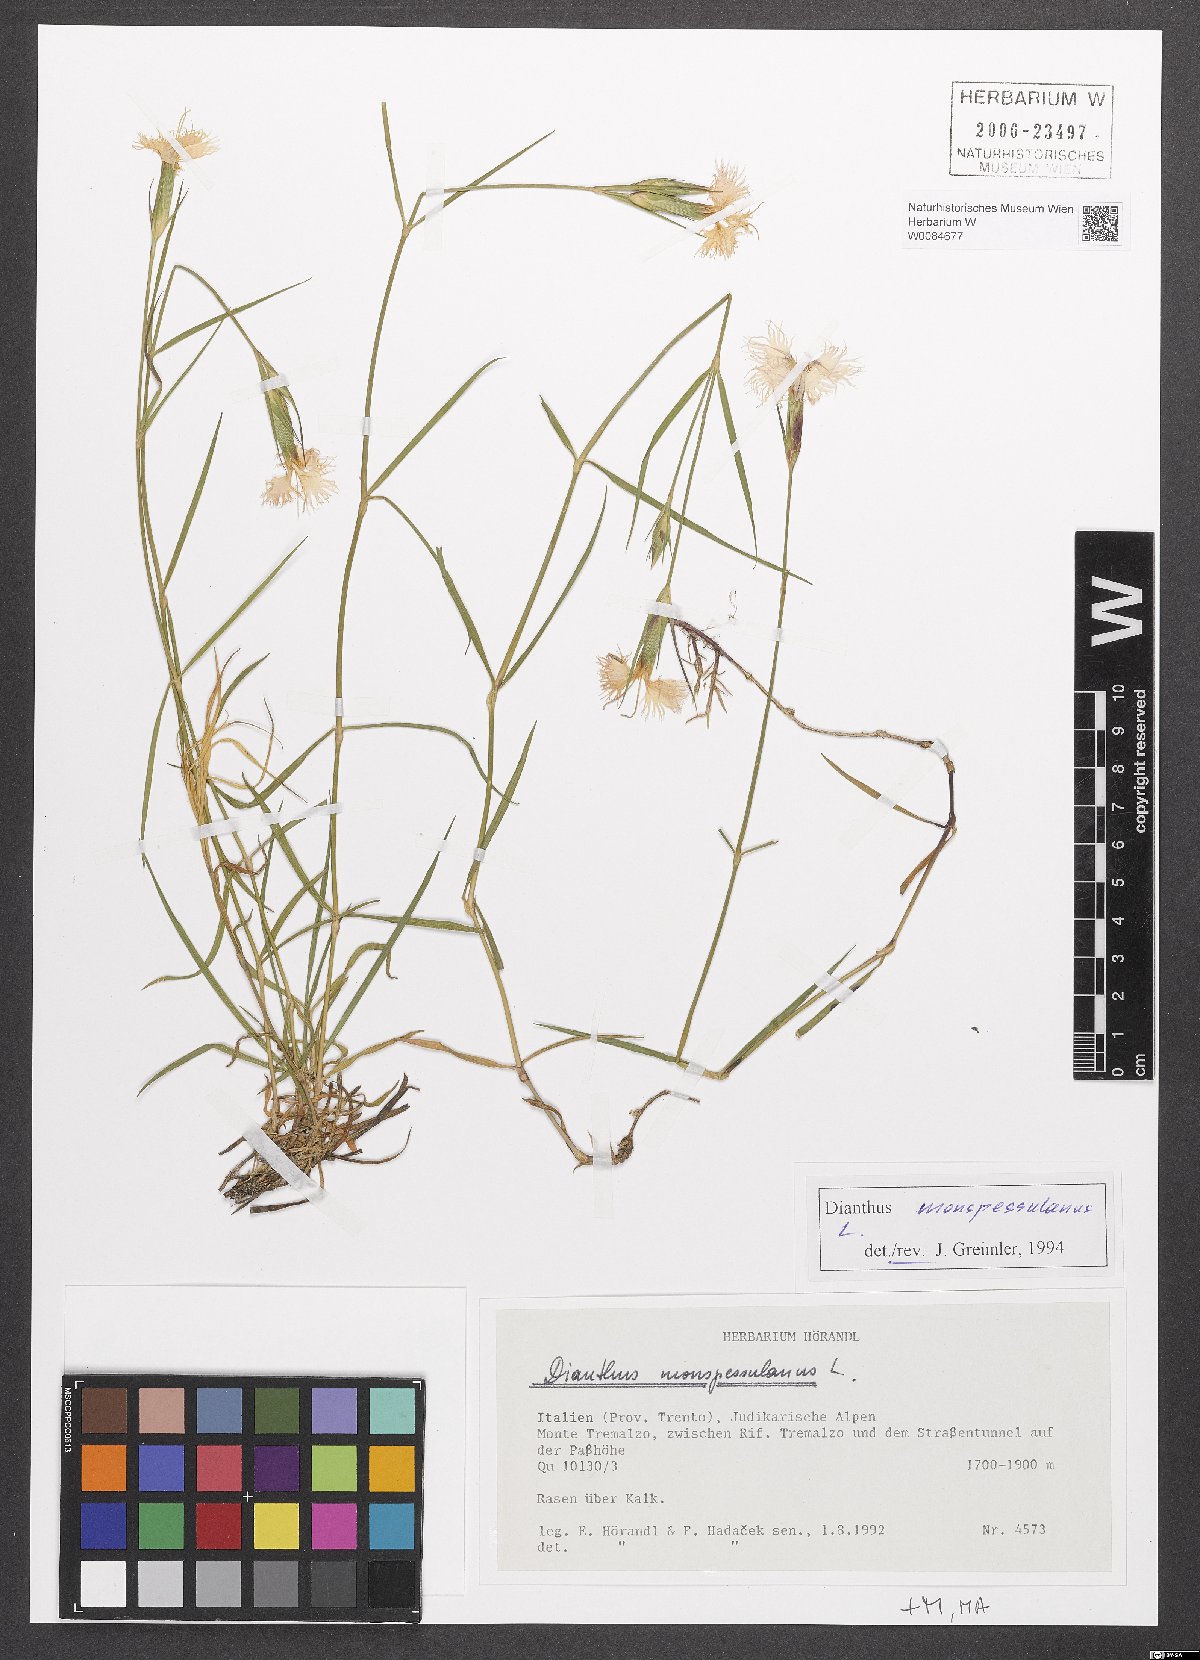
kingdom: Plantae
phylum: Tracheophyta
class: Magnoliopsida
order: Caryophyllales
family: Caryophyllaceae
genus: Dianthus
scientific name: Dianthus hyssopifolius
